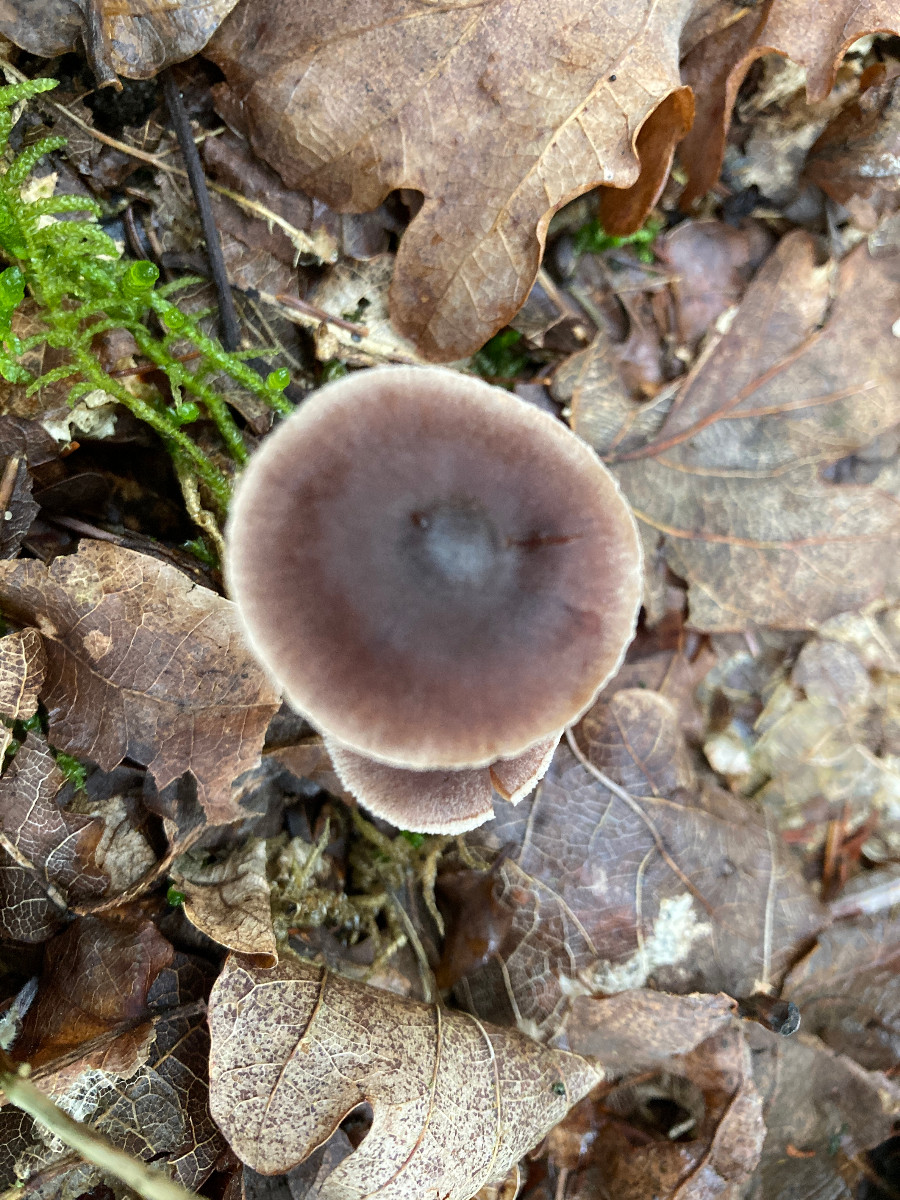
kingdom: Fungi
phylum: Basidiomycota
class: Agaricomycetes
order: Agaricales
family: Cortinariaceae
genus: Cortinarius
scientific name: Cortinarius
